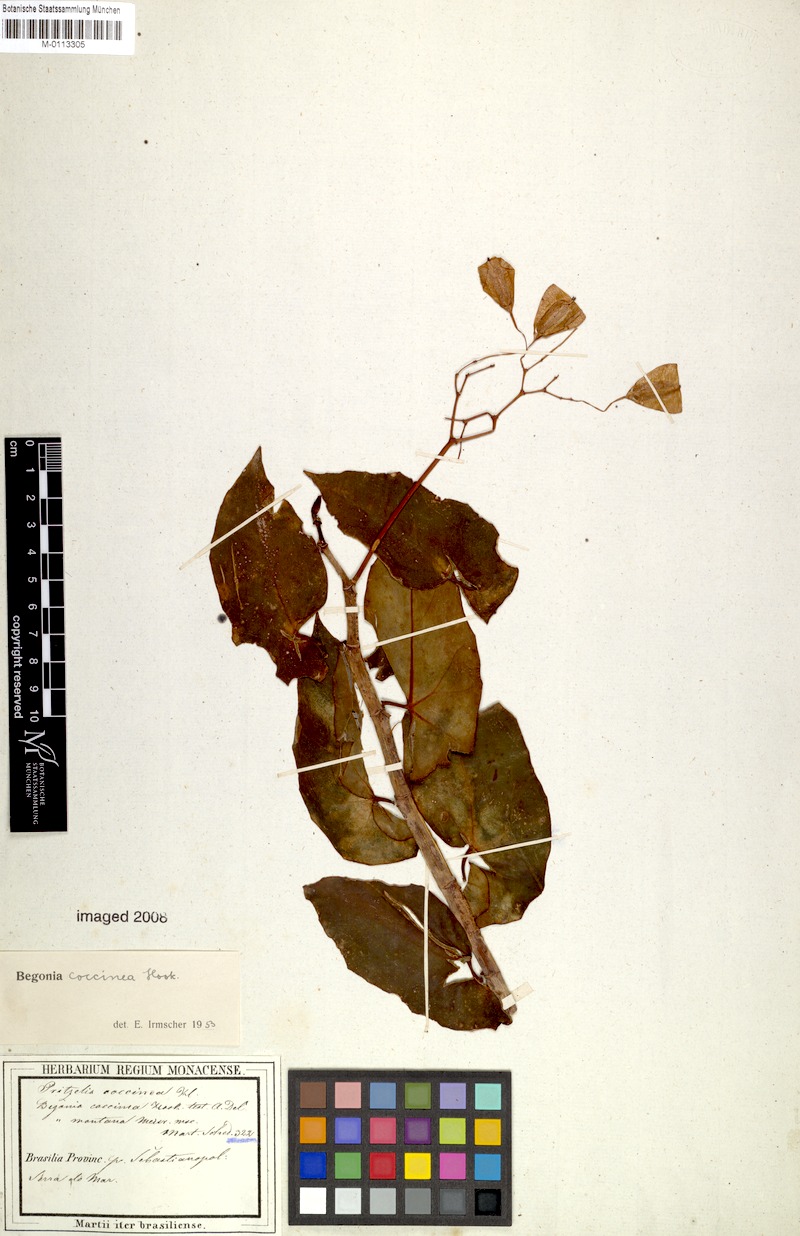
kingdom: Plantae
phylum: Tracheophyta
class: Magnoliopsida
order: Cucurbitales
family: Begoniaceae
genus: Begonia
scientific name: Begonia coccinea
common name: Angel-wing begonia
